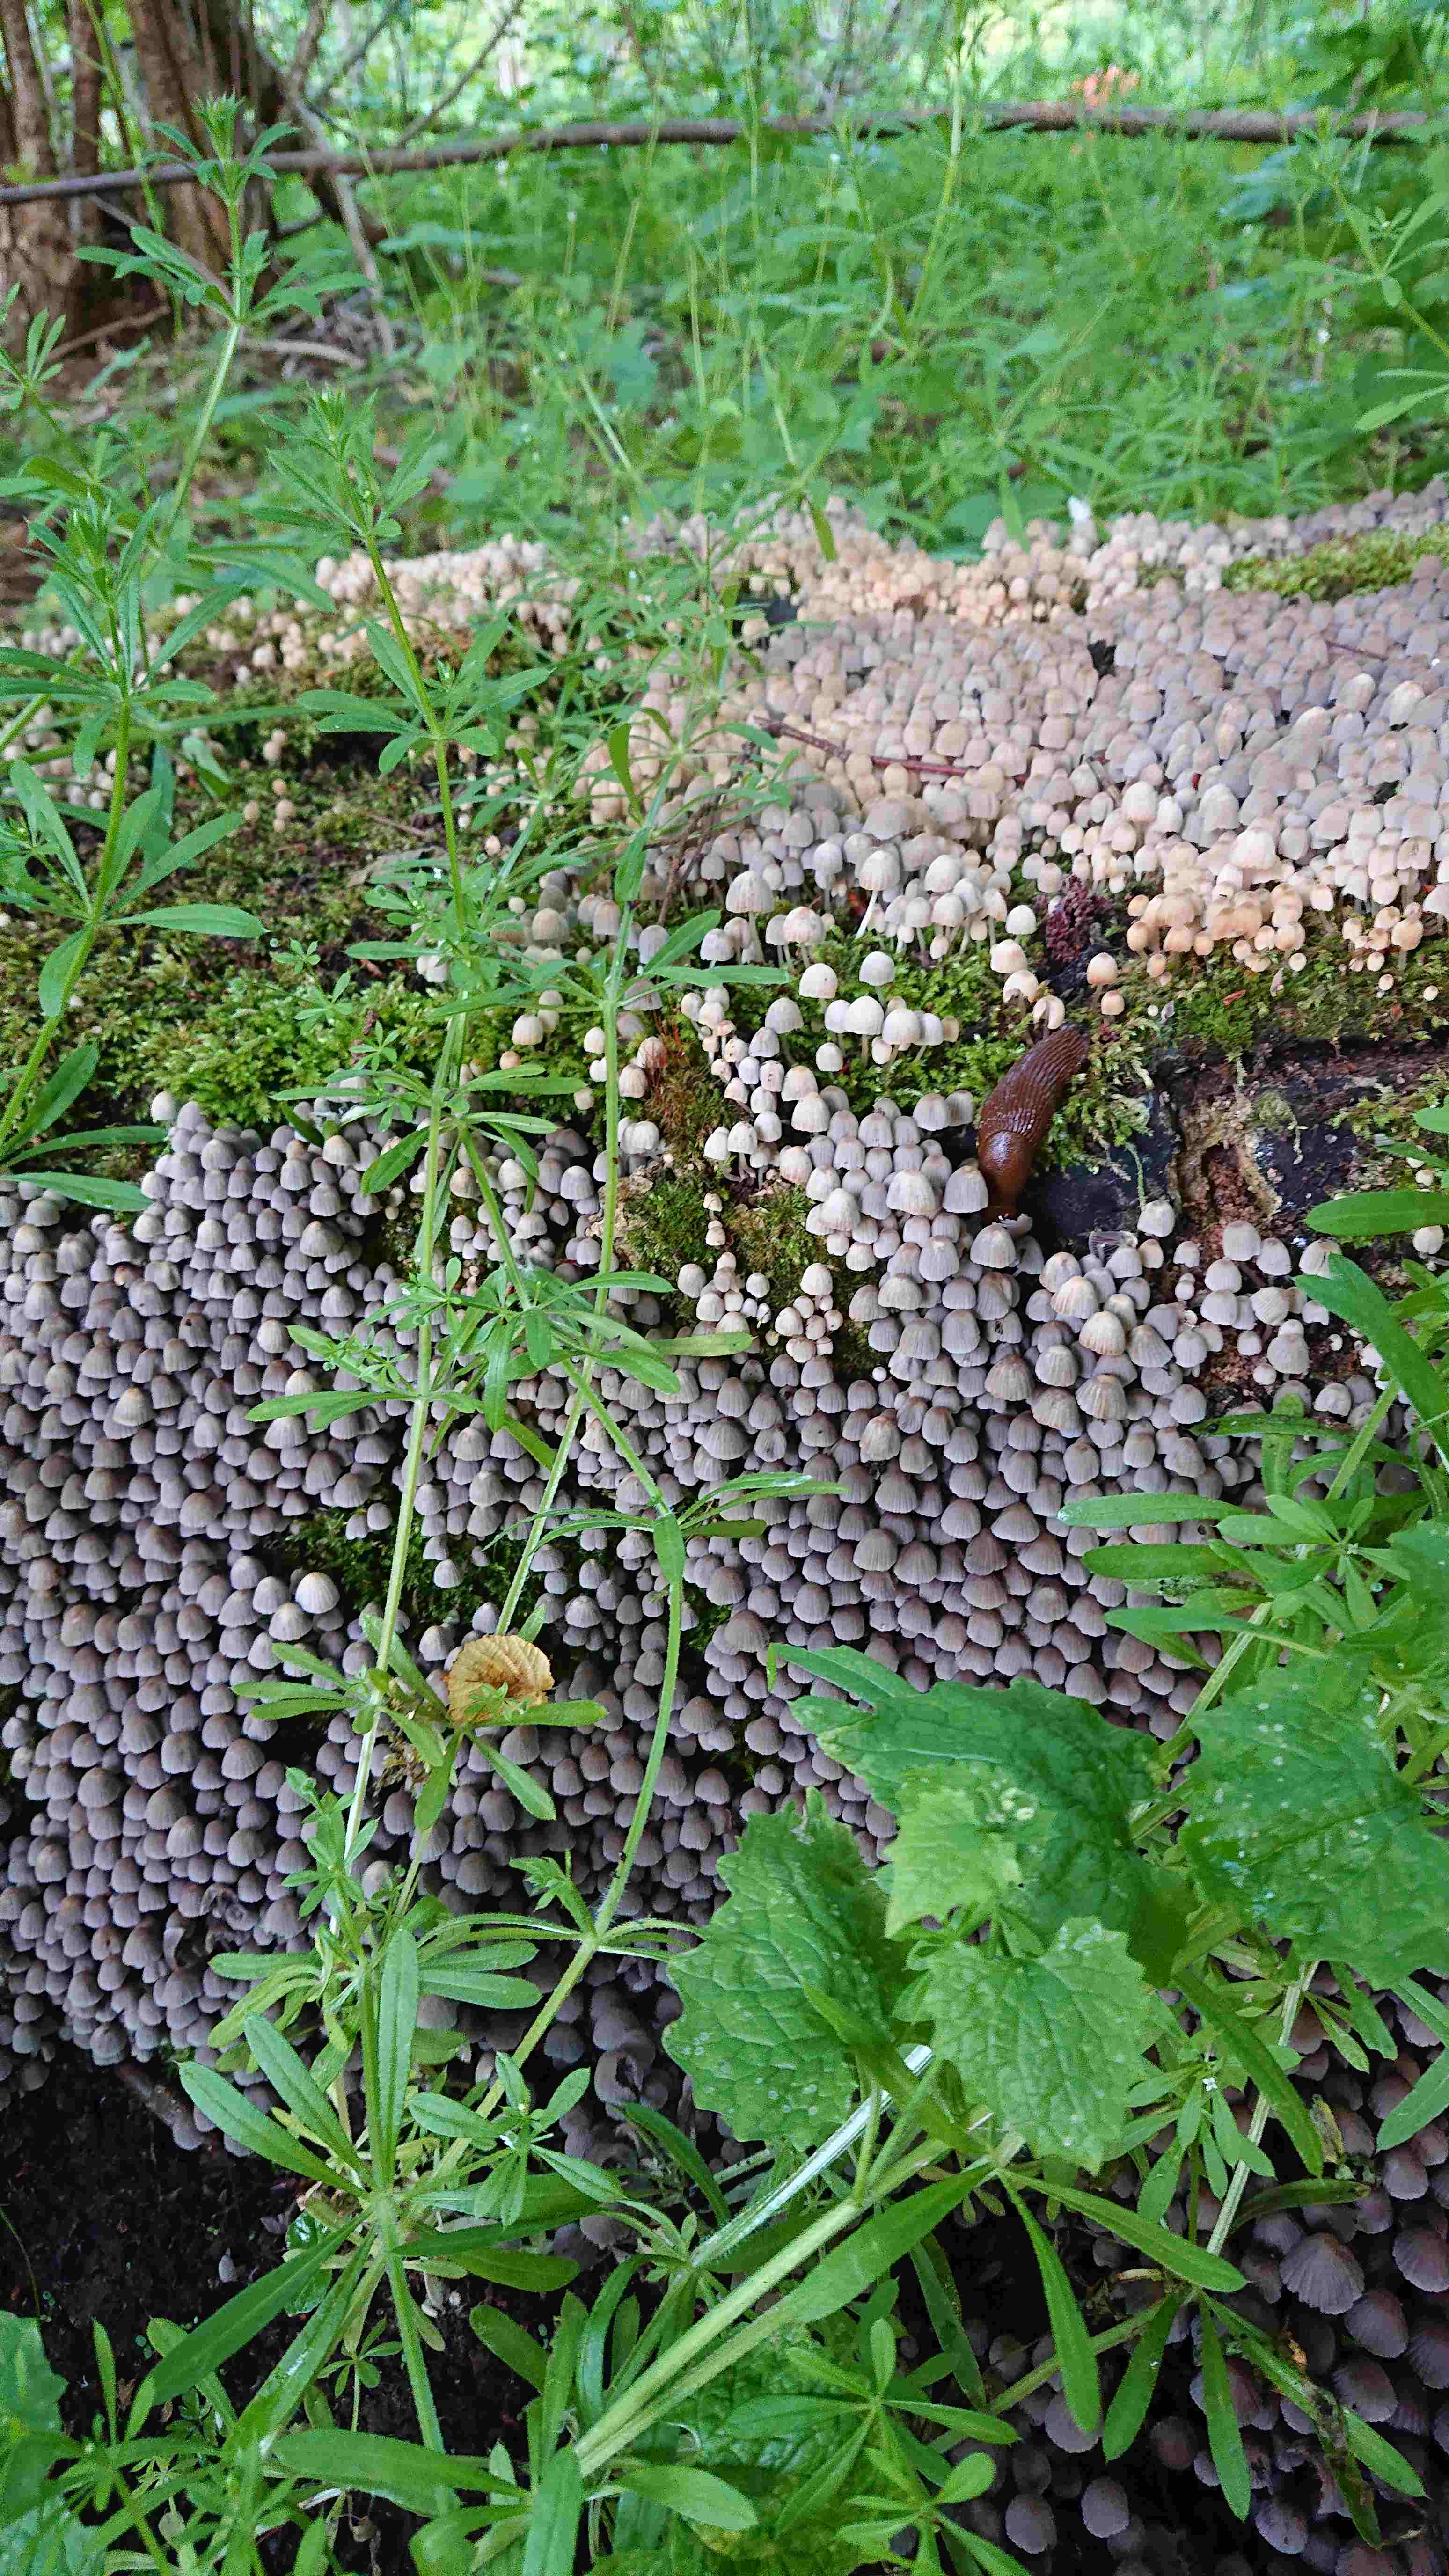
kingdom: Fungi
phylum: Basidiomycota
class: Agaricomycetes
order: Agaricales
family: Psathyrellaceae
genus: Coprinellus
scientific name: Coprinellus disseminatus
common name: bredsået blækhat
